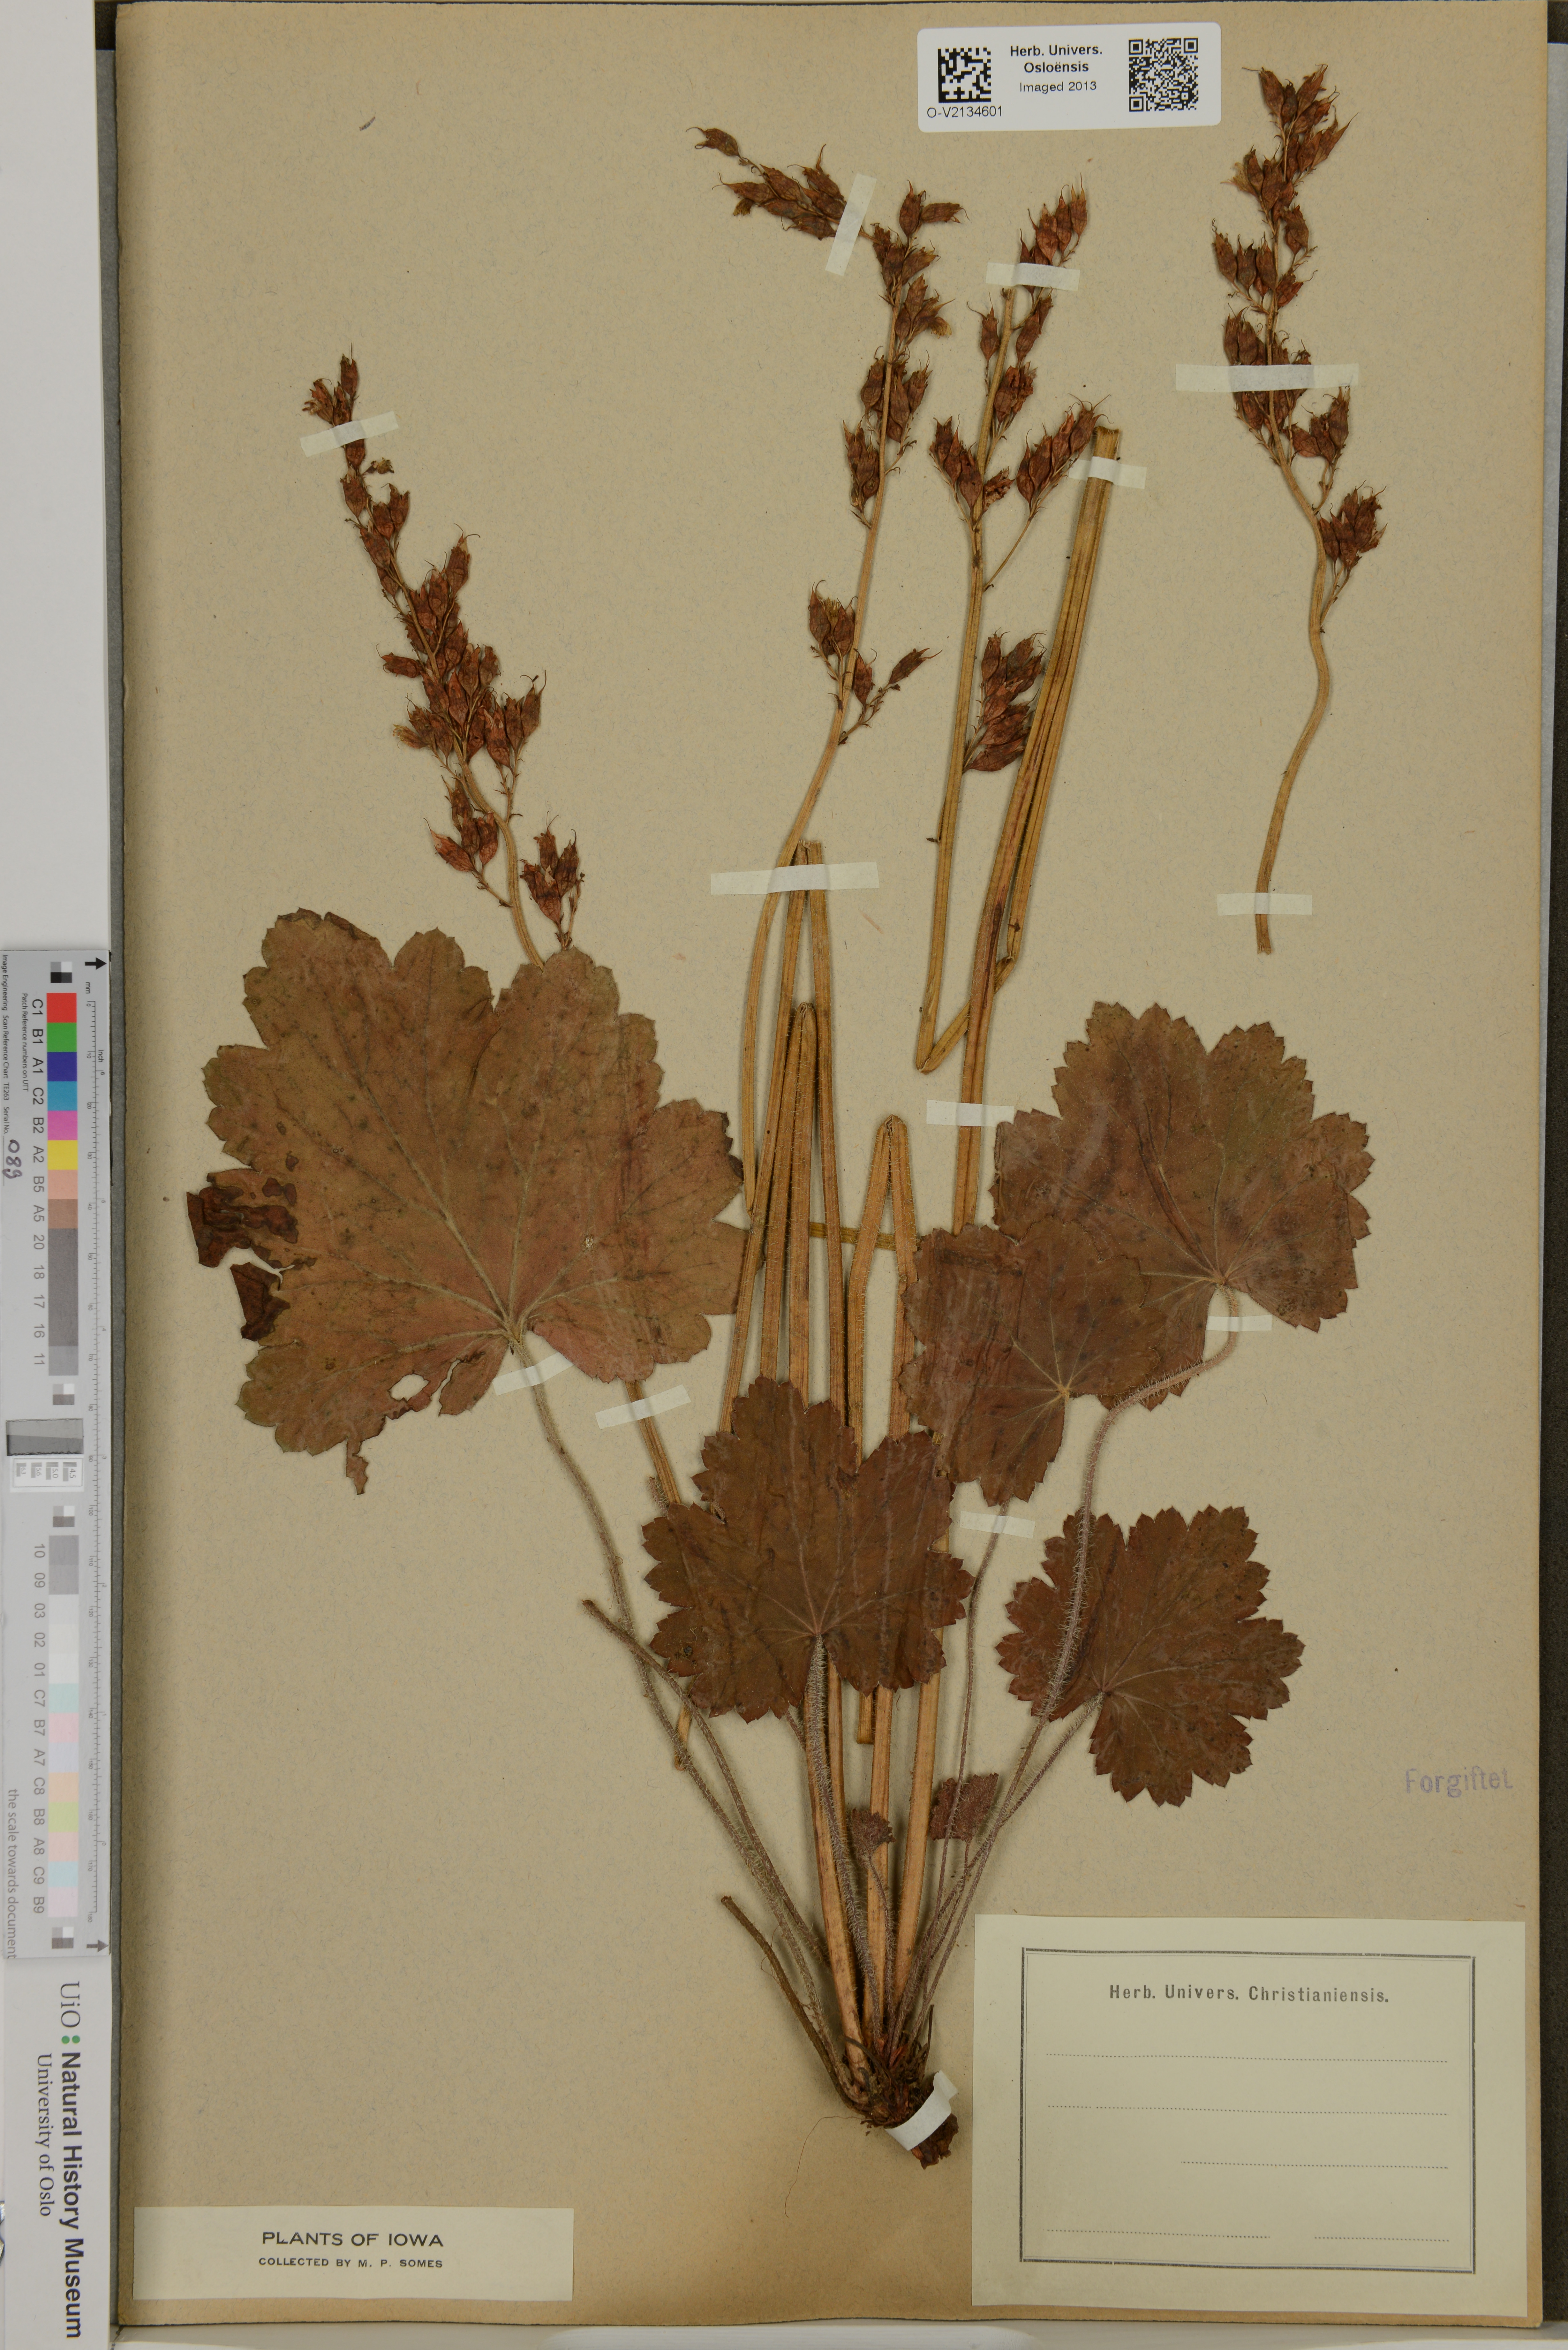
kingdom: Plantae
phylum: Tracheophyta
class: Magnoliopsida
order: Saxifragales
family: Saxifragaceae
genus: Heuchera
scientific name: Heuchera
